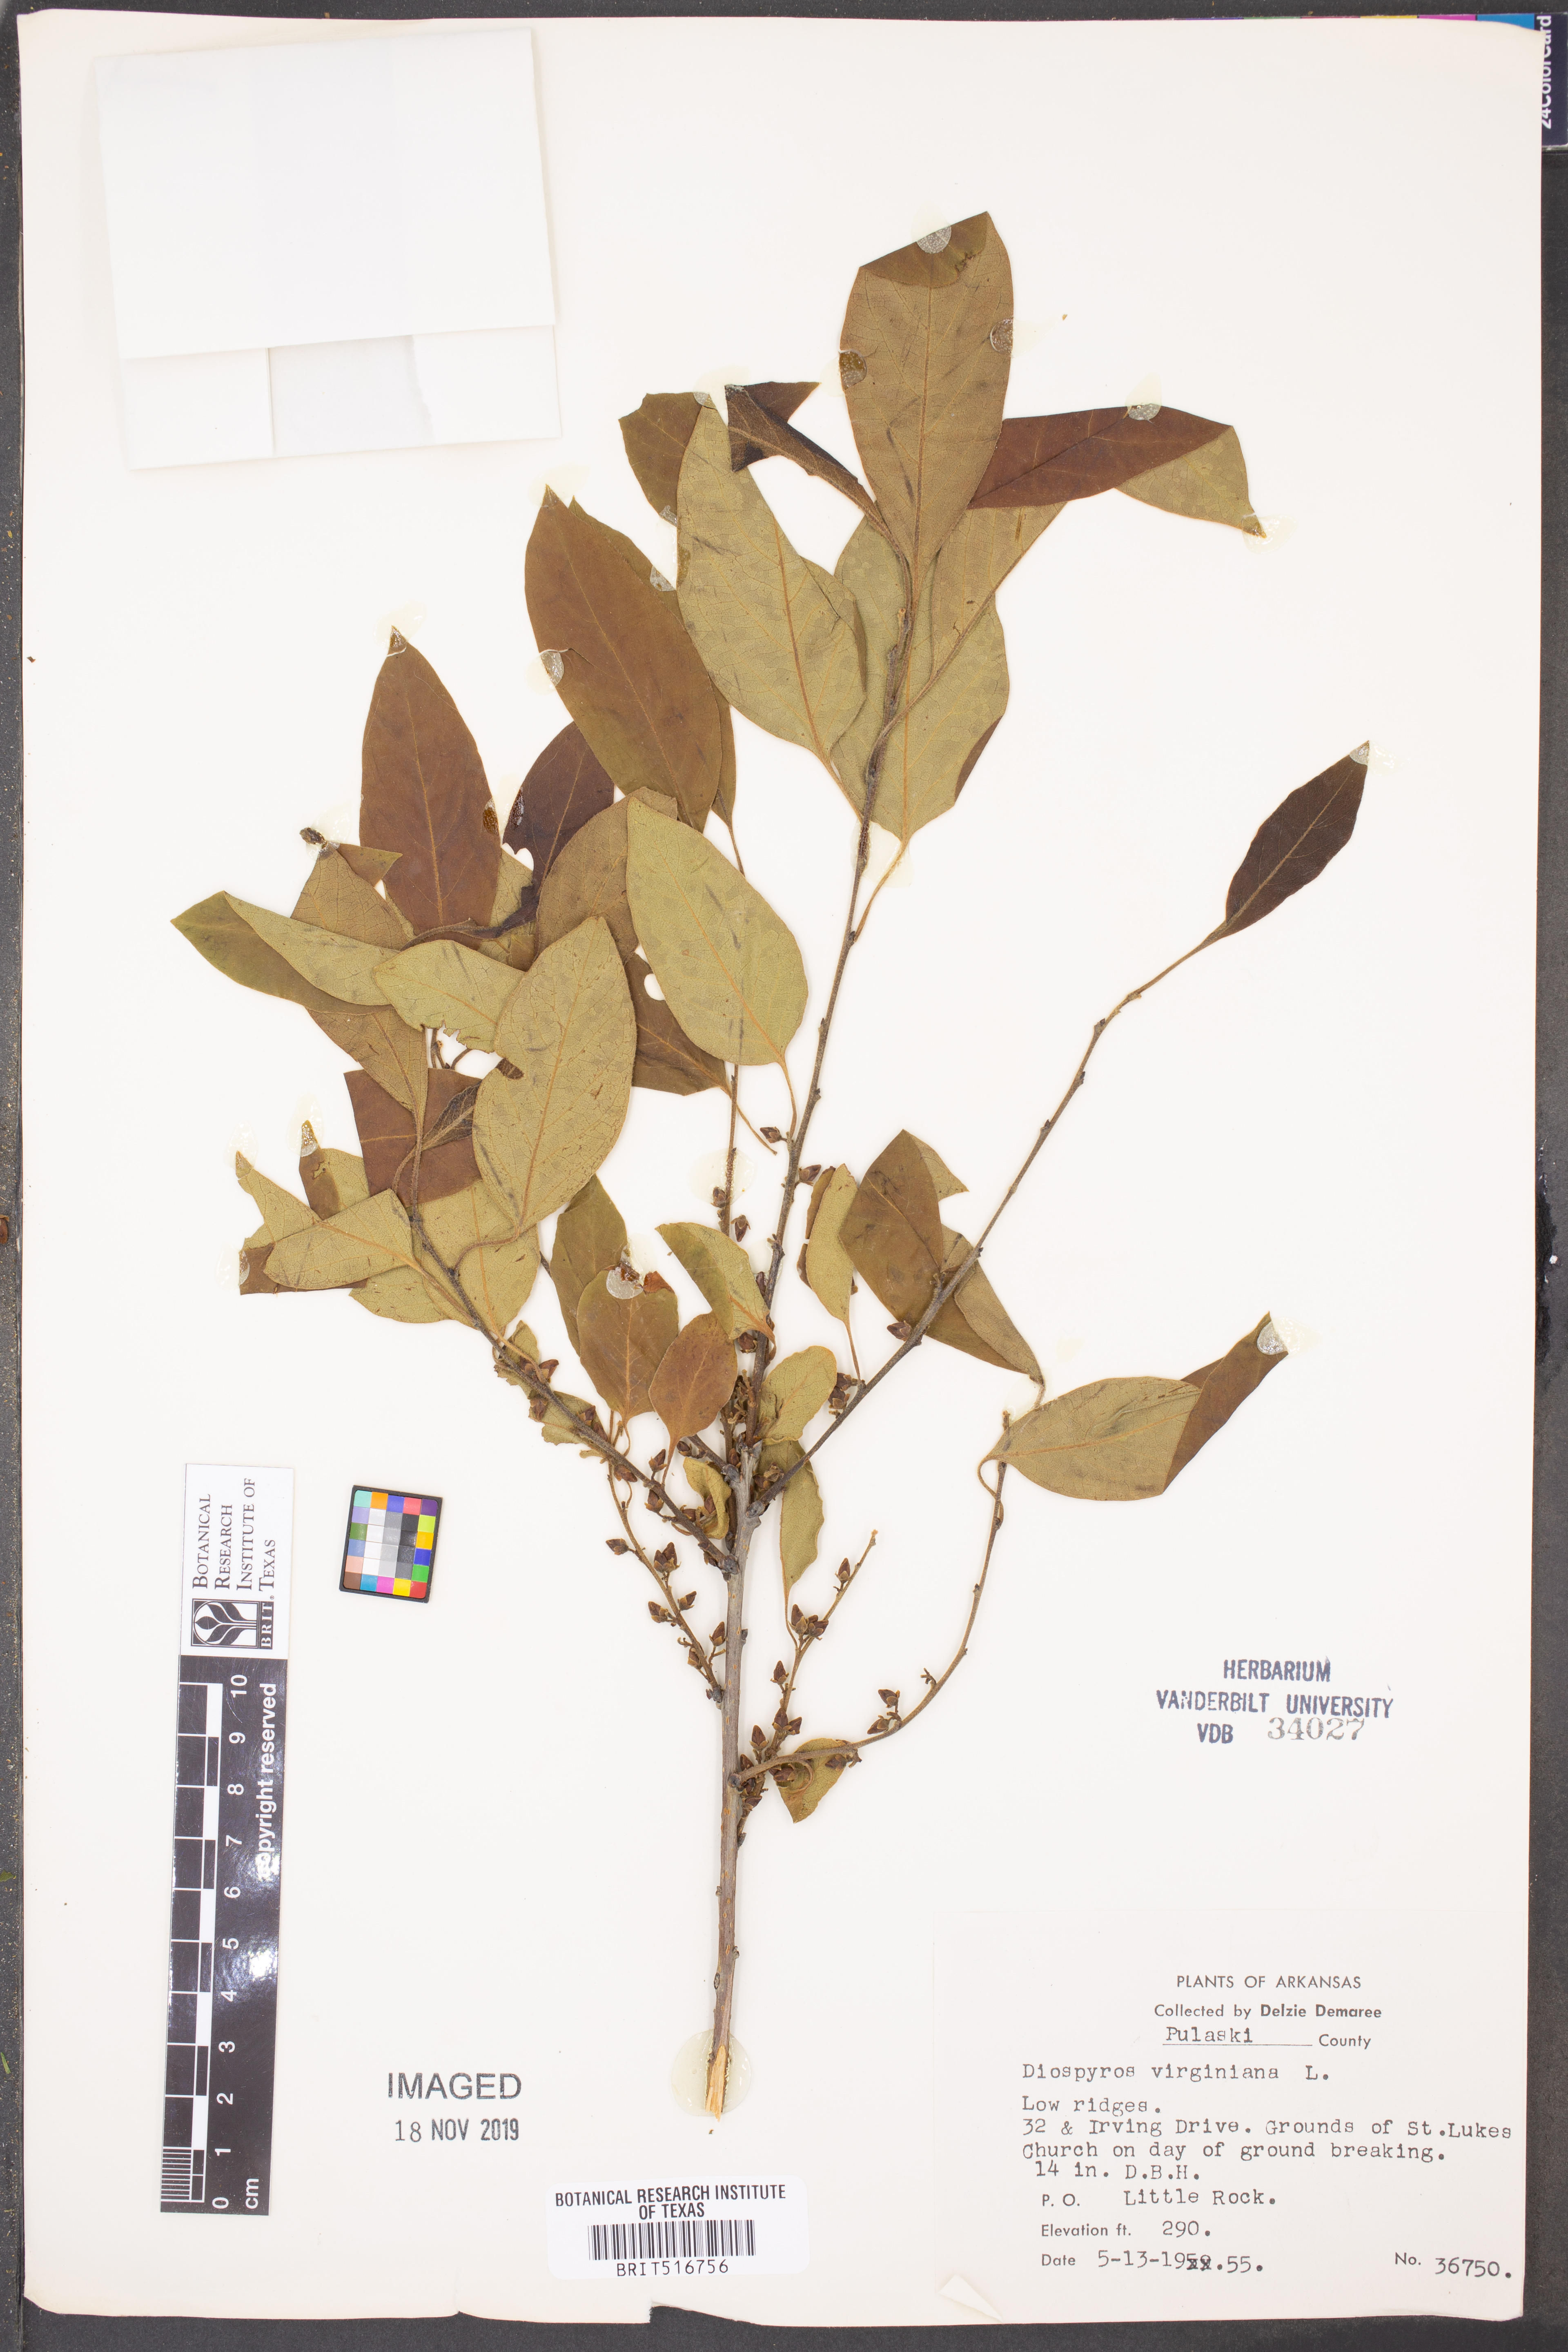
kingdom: Plantae
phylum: Tracheophyta
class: Magnoliopsida
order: Ericales
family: Ebenaceae
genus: Diospyros
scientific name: Diospyros virginiana
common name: Persimmon
